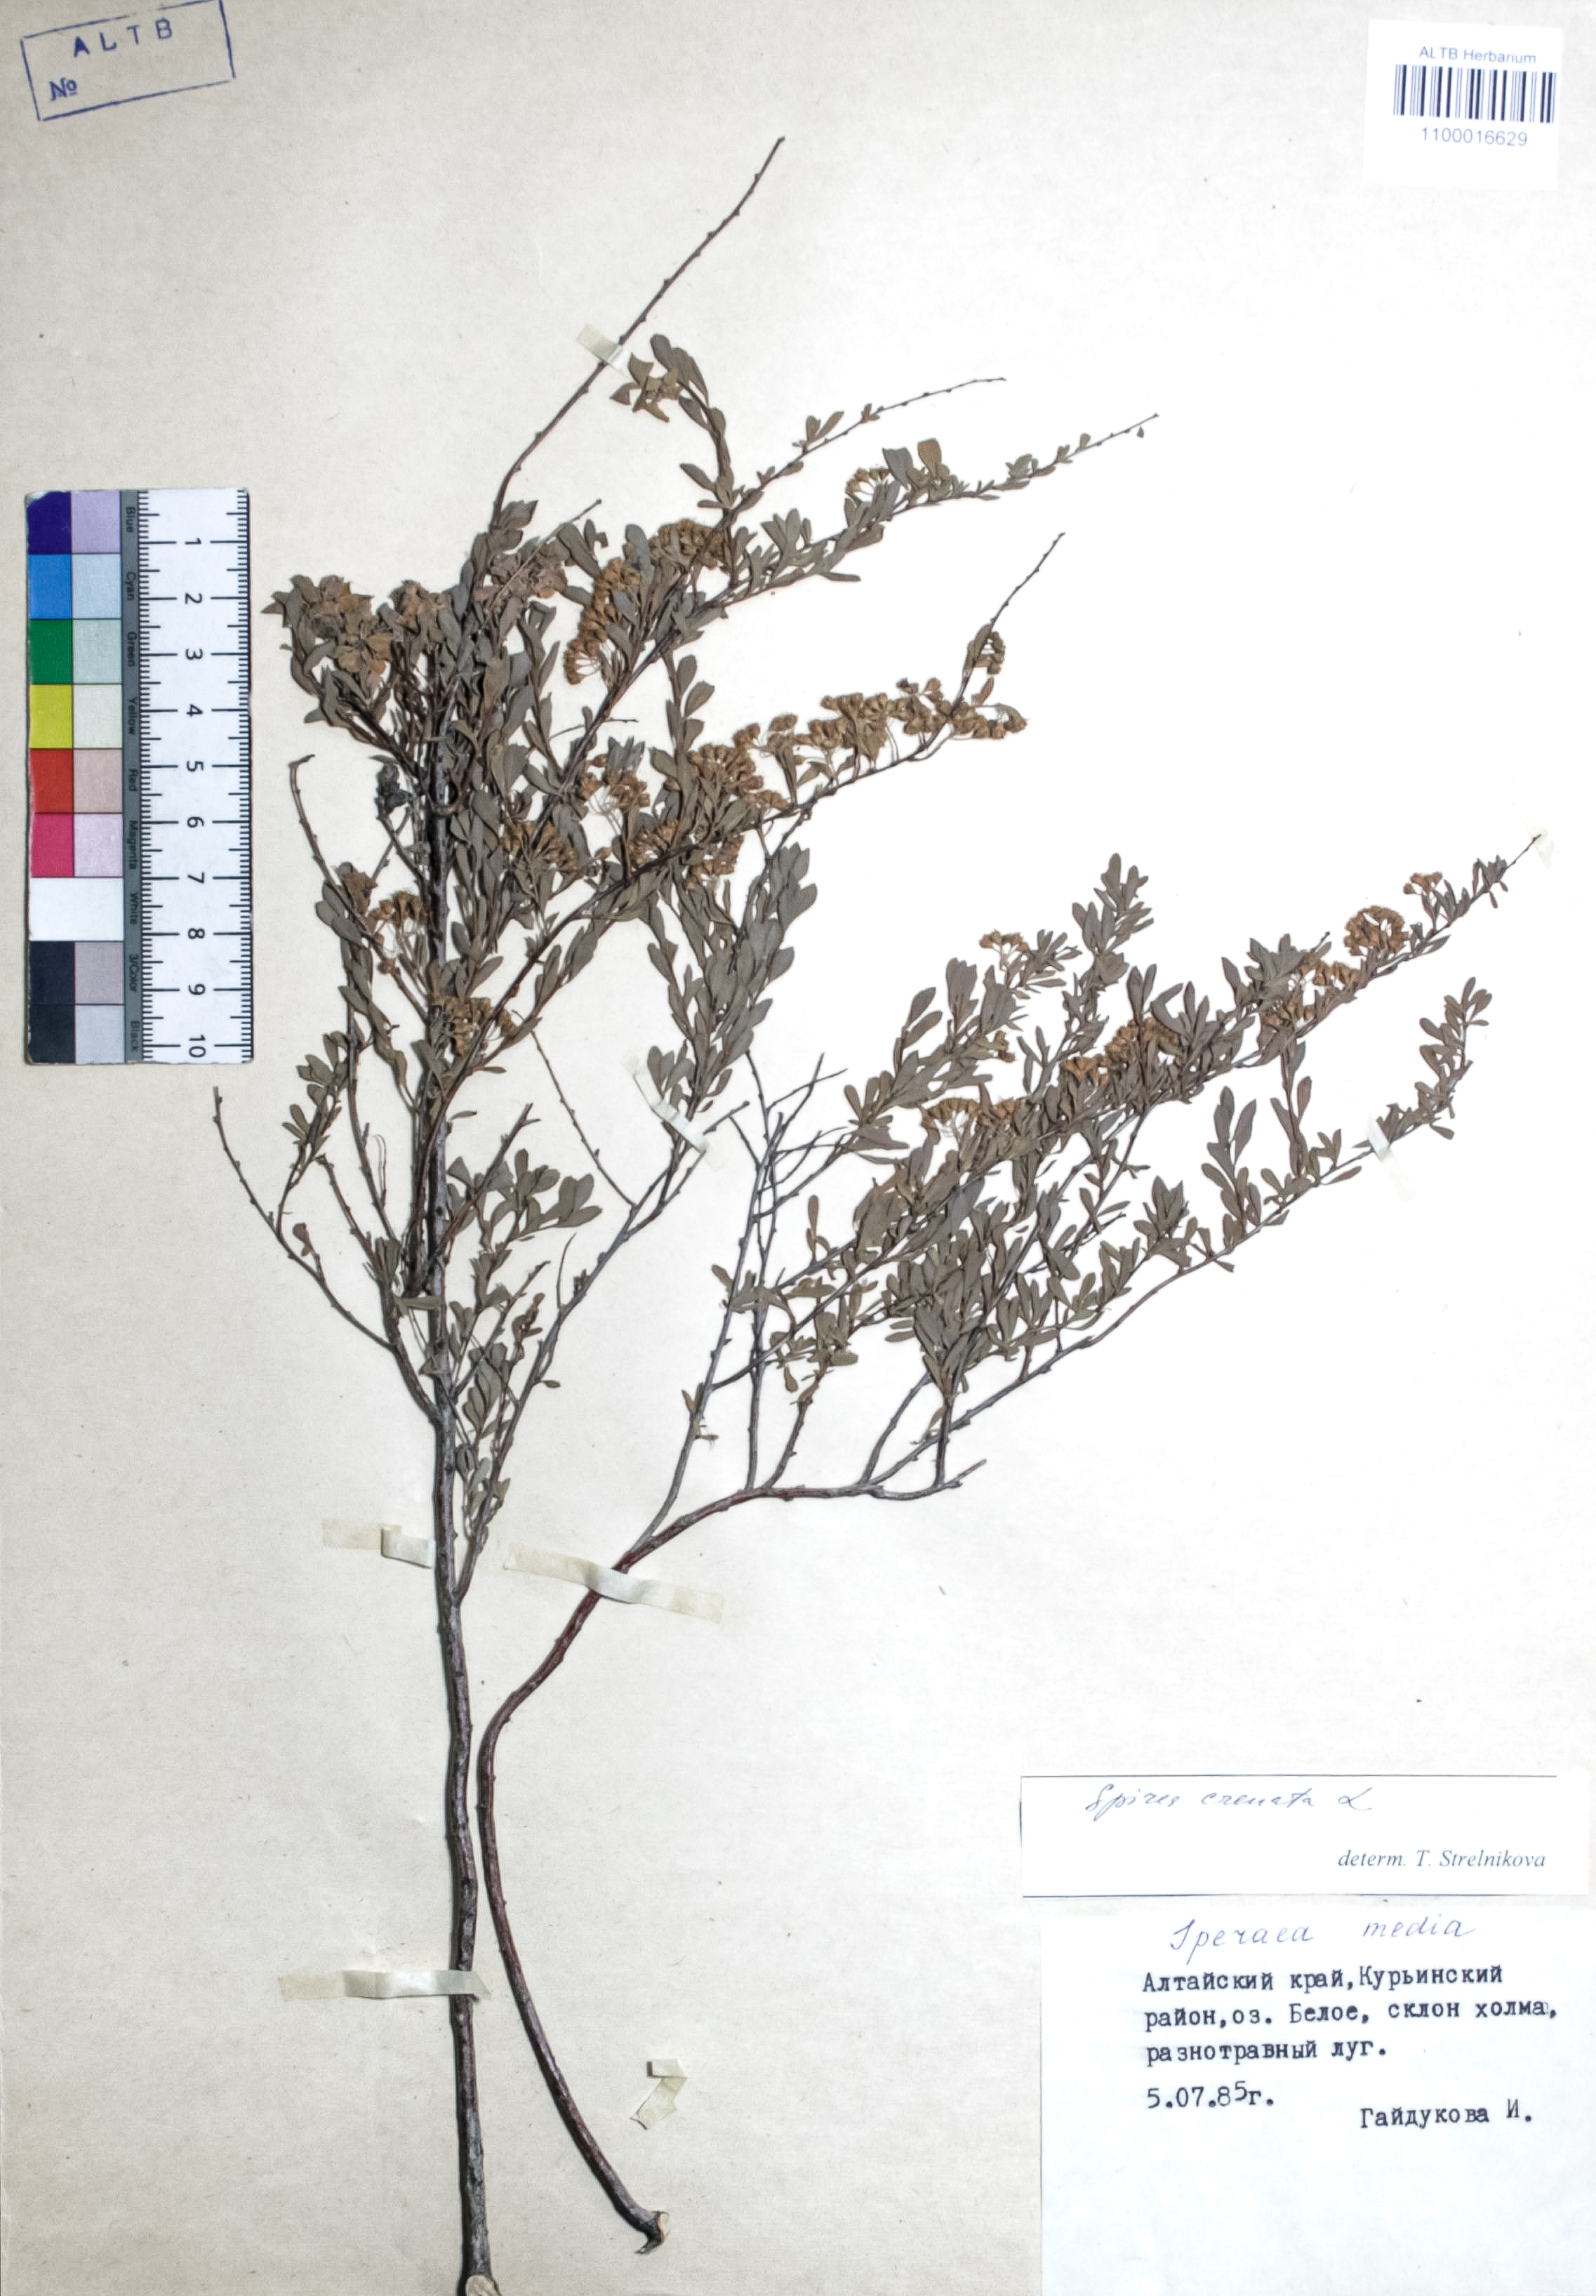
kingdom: Plantae
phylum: Tracheophyta
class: Magnoliopsida
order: Rosales
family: Rosaceae
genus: Spiraea
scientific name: Spiraea crenata
